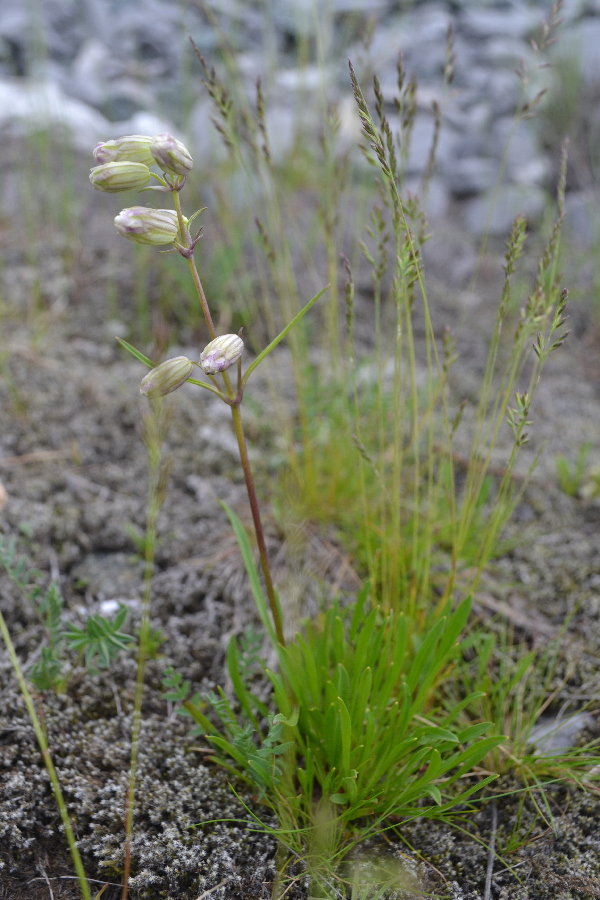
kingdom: Plantae
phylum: Tracheophyta
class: Magnoliopsida
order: Caryophyllales
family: Caryophyllaceae
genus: Silene
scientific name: Silene chamarensis
